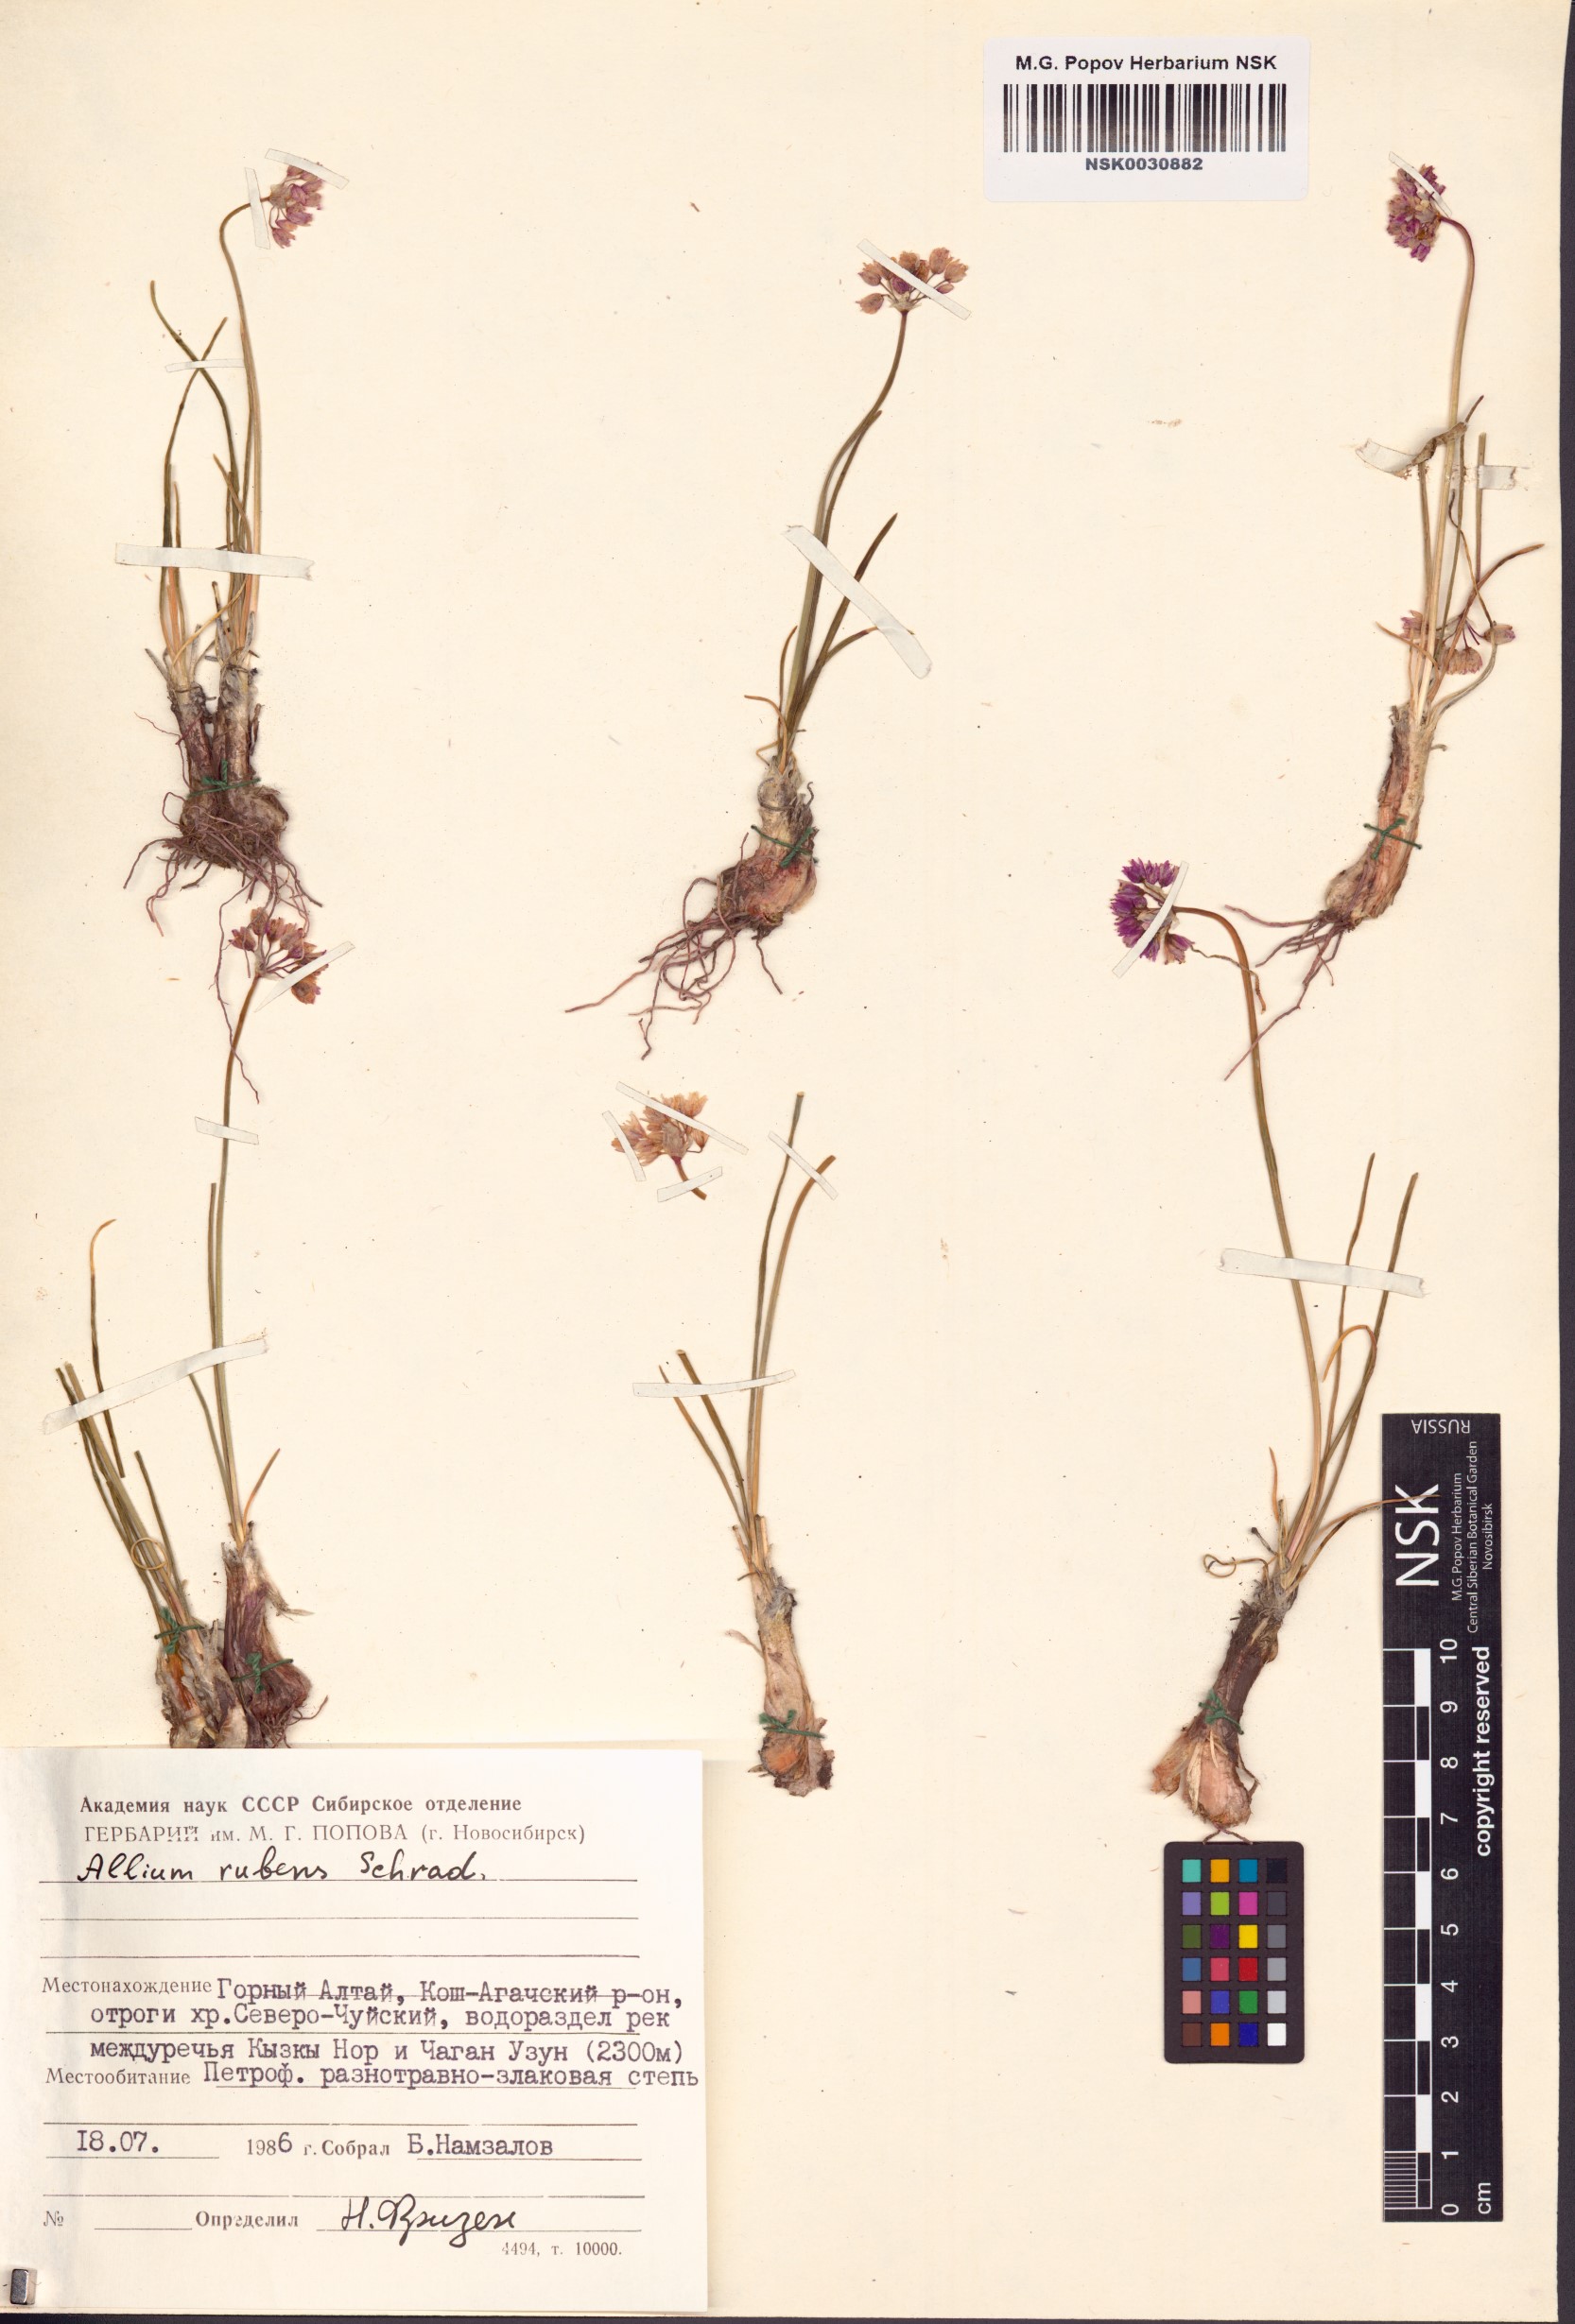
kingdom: Plantae
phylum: Tracheophyta
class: Liliopsida
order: Asparagales
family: Amaryllidaceae
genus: Allium
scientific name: Allium rubens
